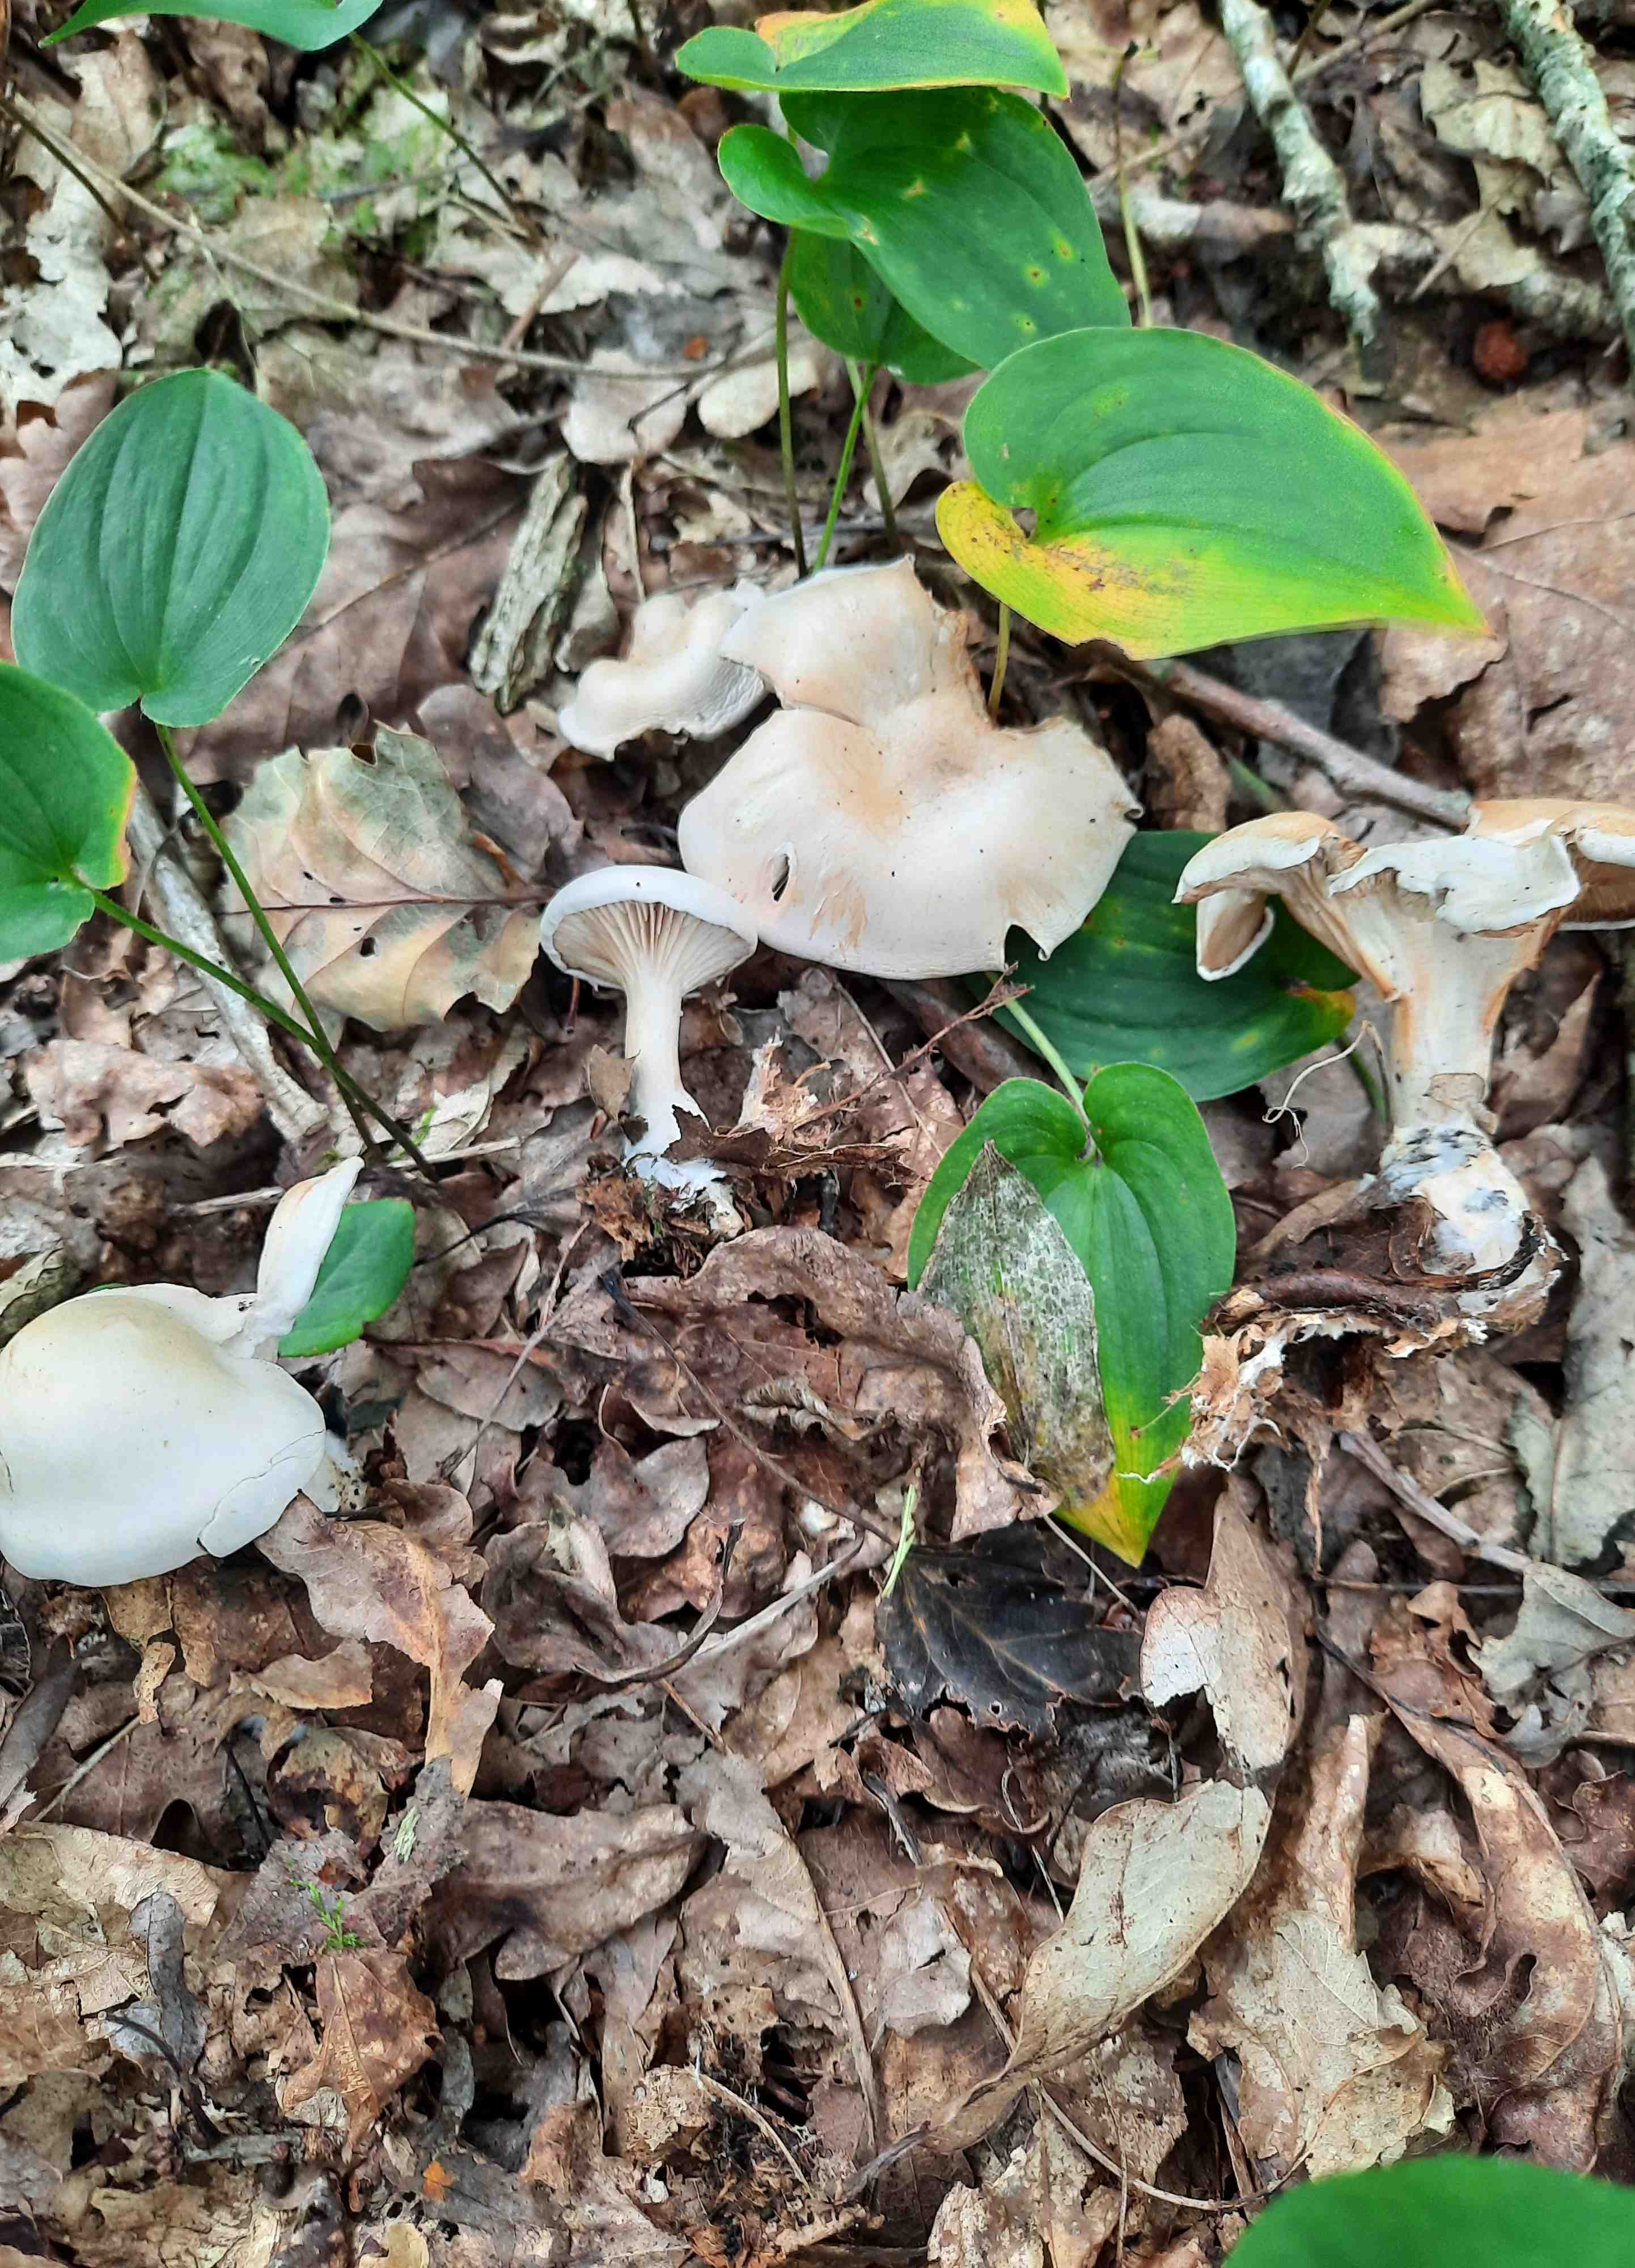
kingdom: Fungi
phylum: Basidiomycota
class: Agaricomycetes
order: Agaricales
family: Tricholomataceae
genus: Clitocybe
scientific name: Clitocybe
